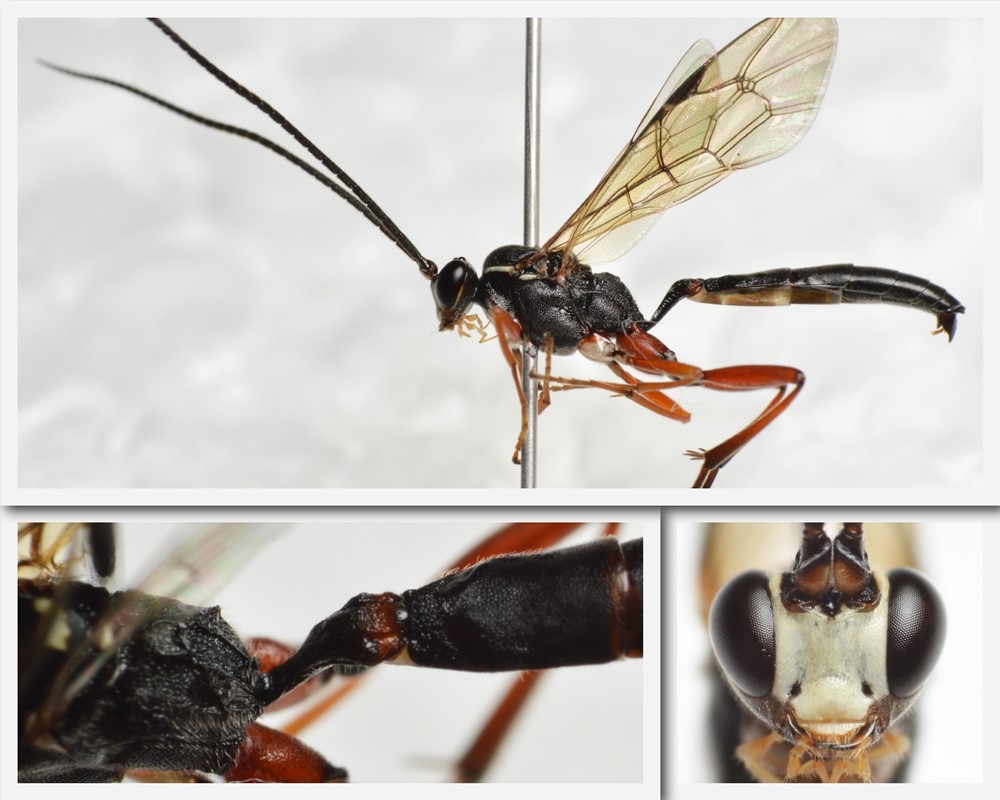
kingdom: Animalia
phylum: Arthropoda
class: Insecta
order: Hymenoptera
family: Ichneumonidae
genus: Hypomecus
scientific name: Hypomecus quadriannulatus
